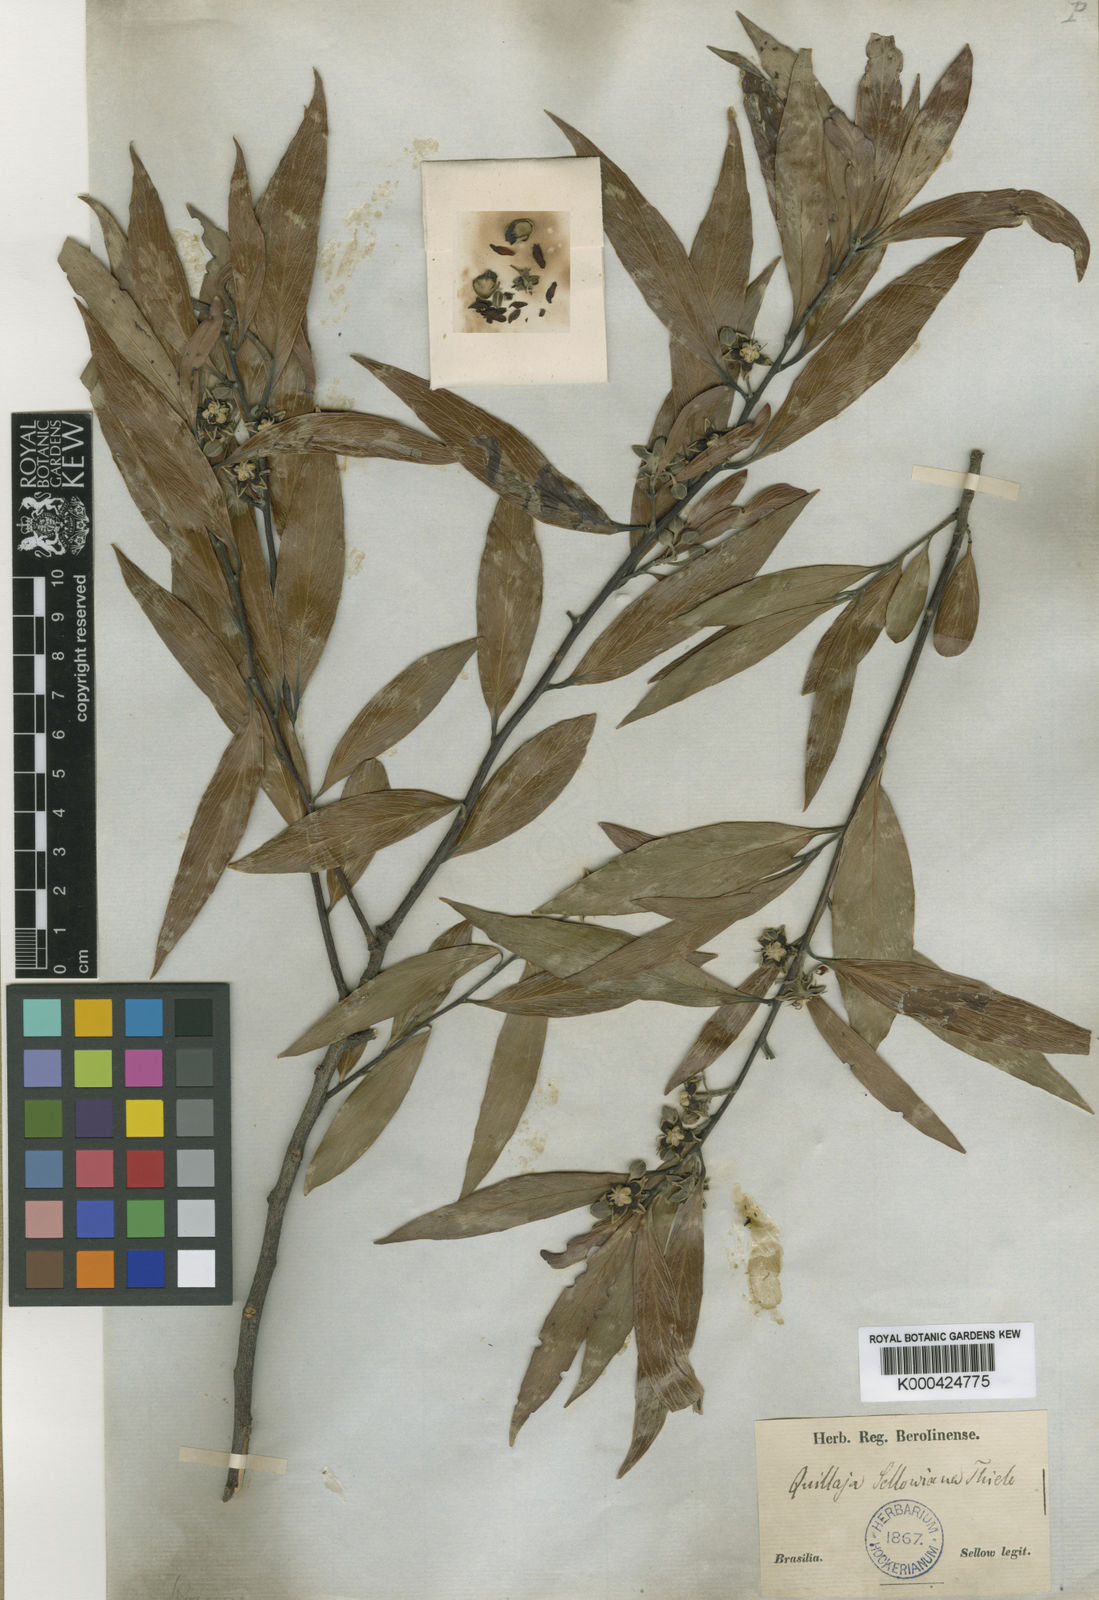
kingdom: Plantae
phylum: Tracheophyta
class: Magnoliopsida
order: Fabales
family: Quillajaceae
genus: Quillaja
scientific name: Quillaja
